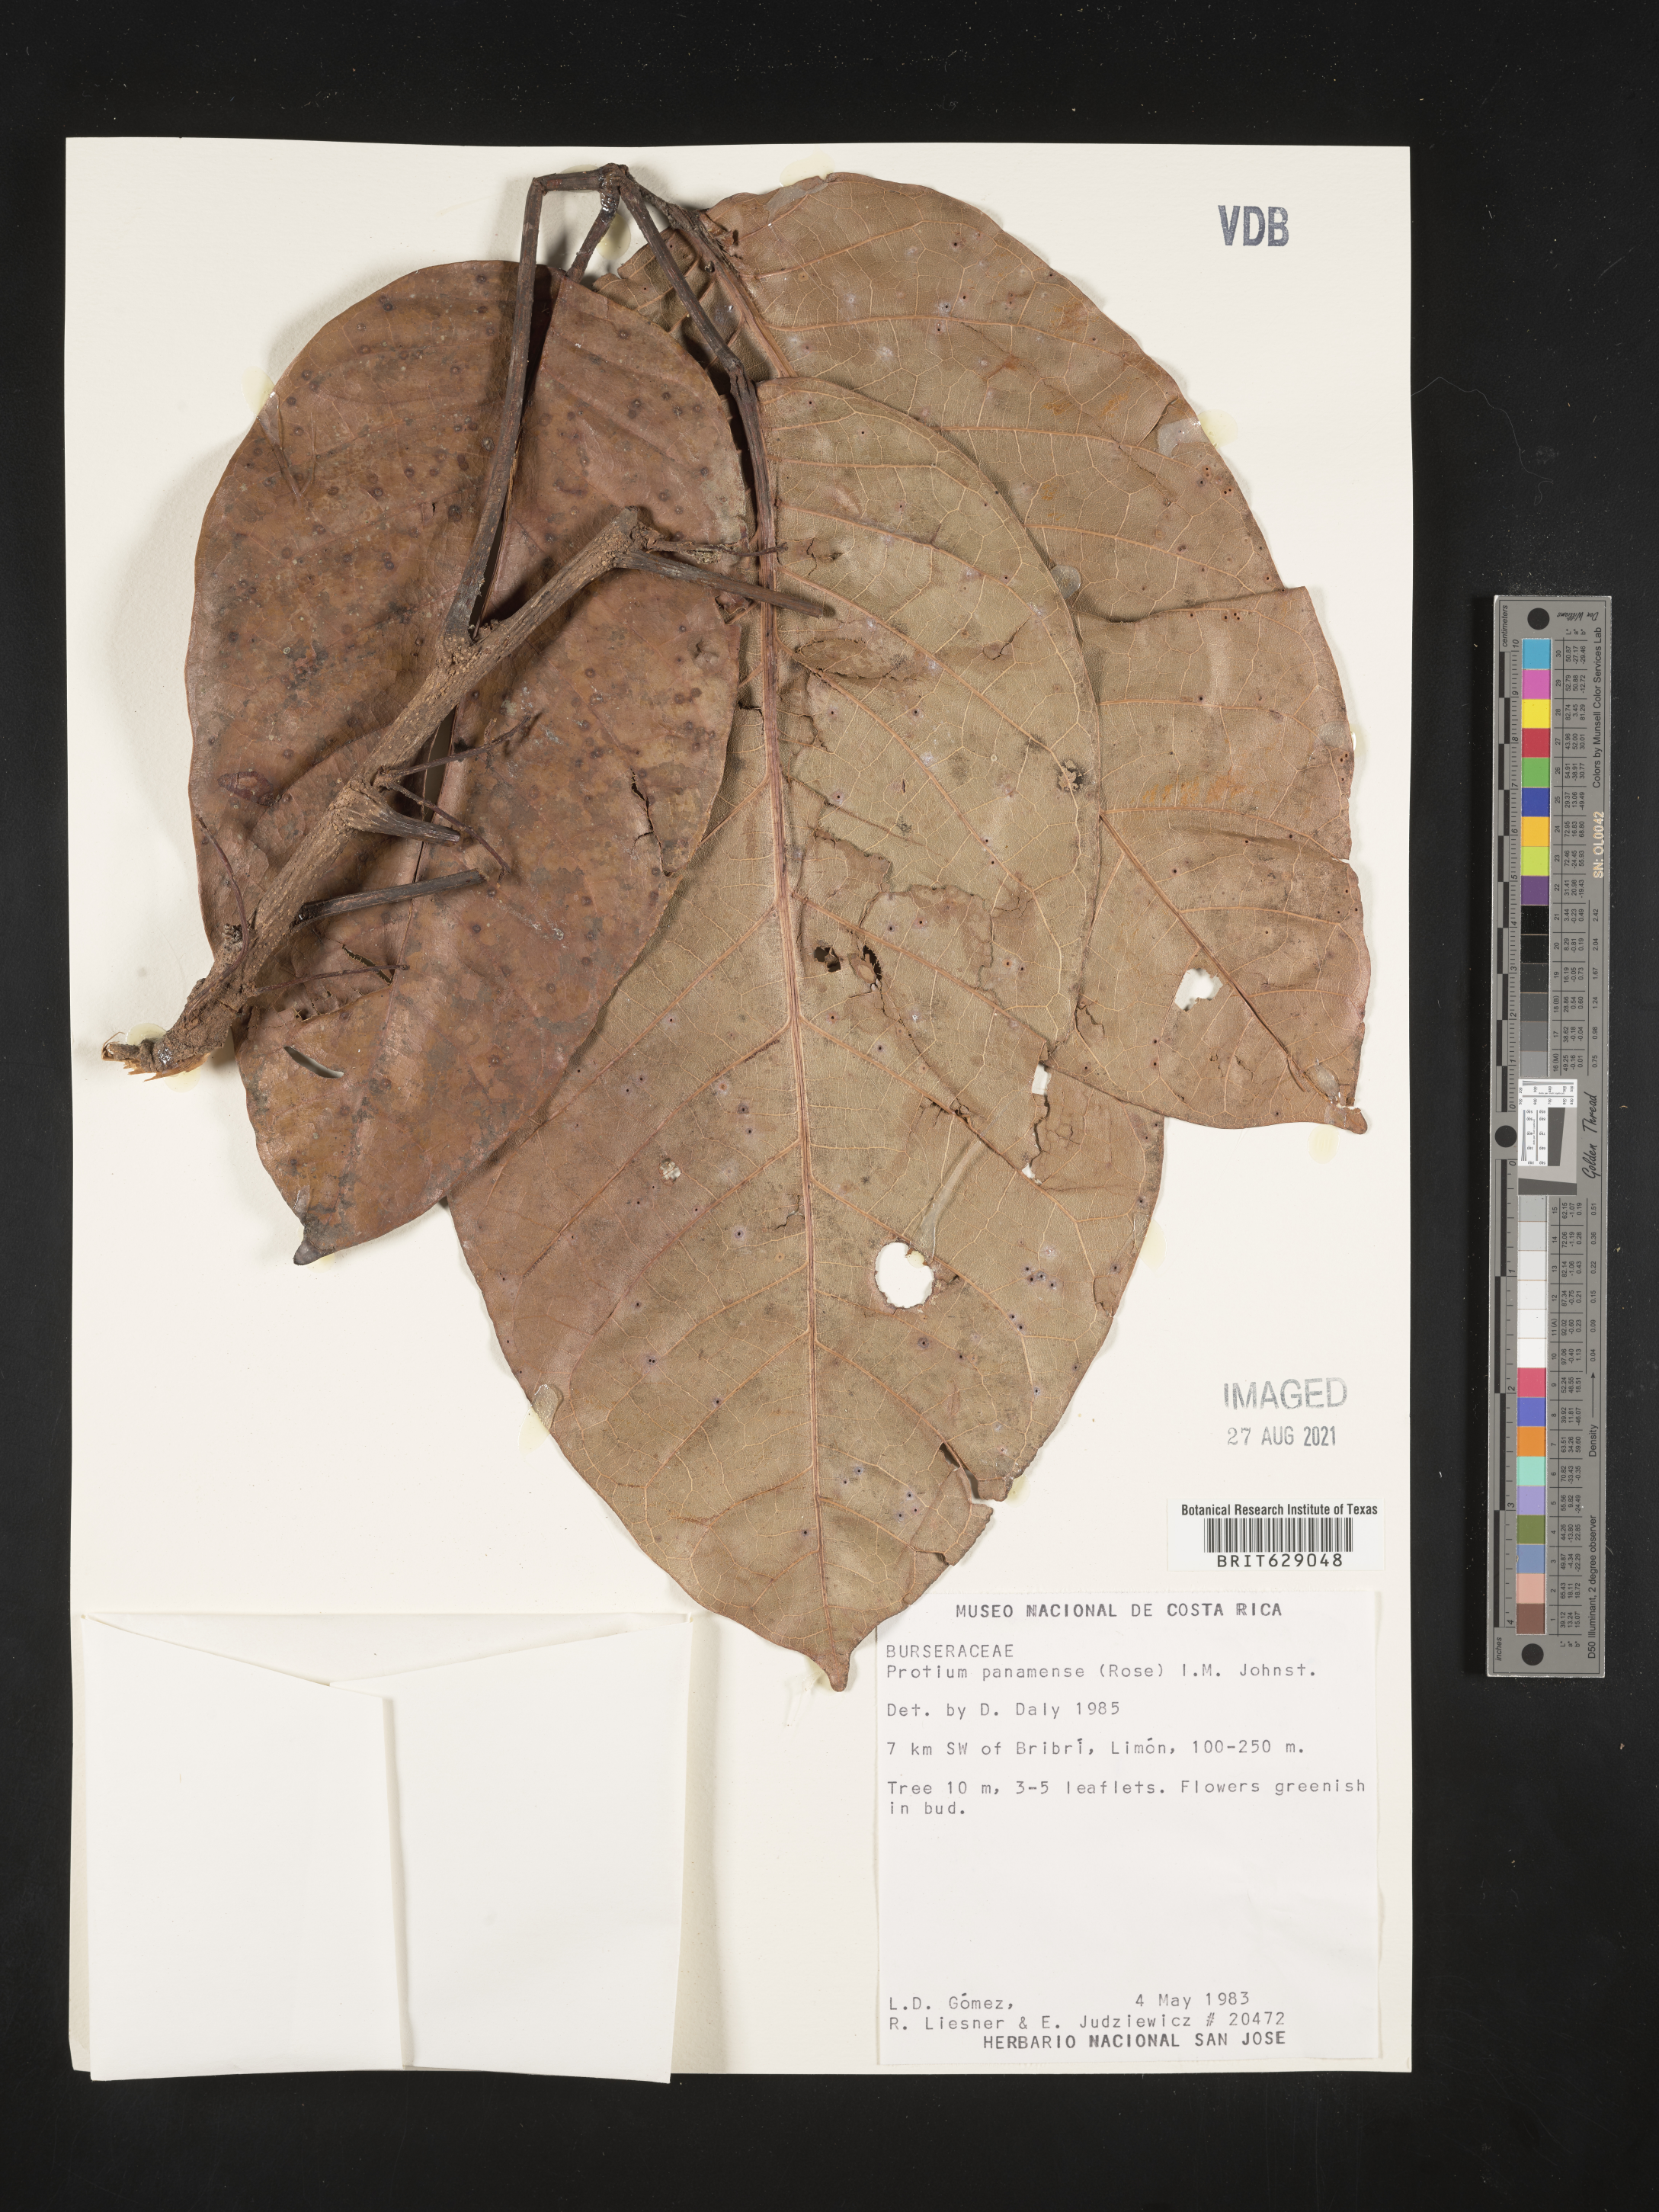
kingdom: Plantae
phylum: Tracheophyta
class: Magnoliopsida
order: Sapindales
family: Burseraceae
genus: Protium
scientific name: Protium panamense
